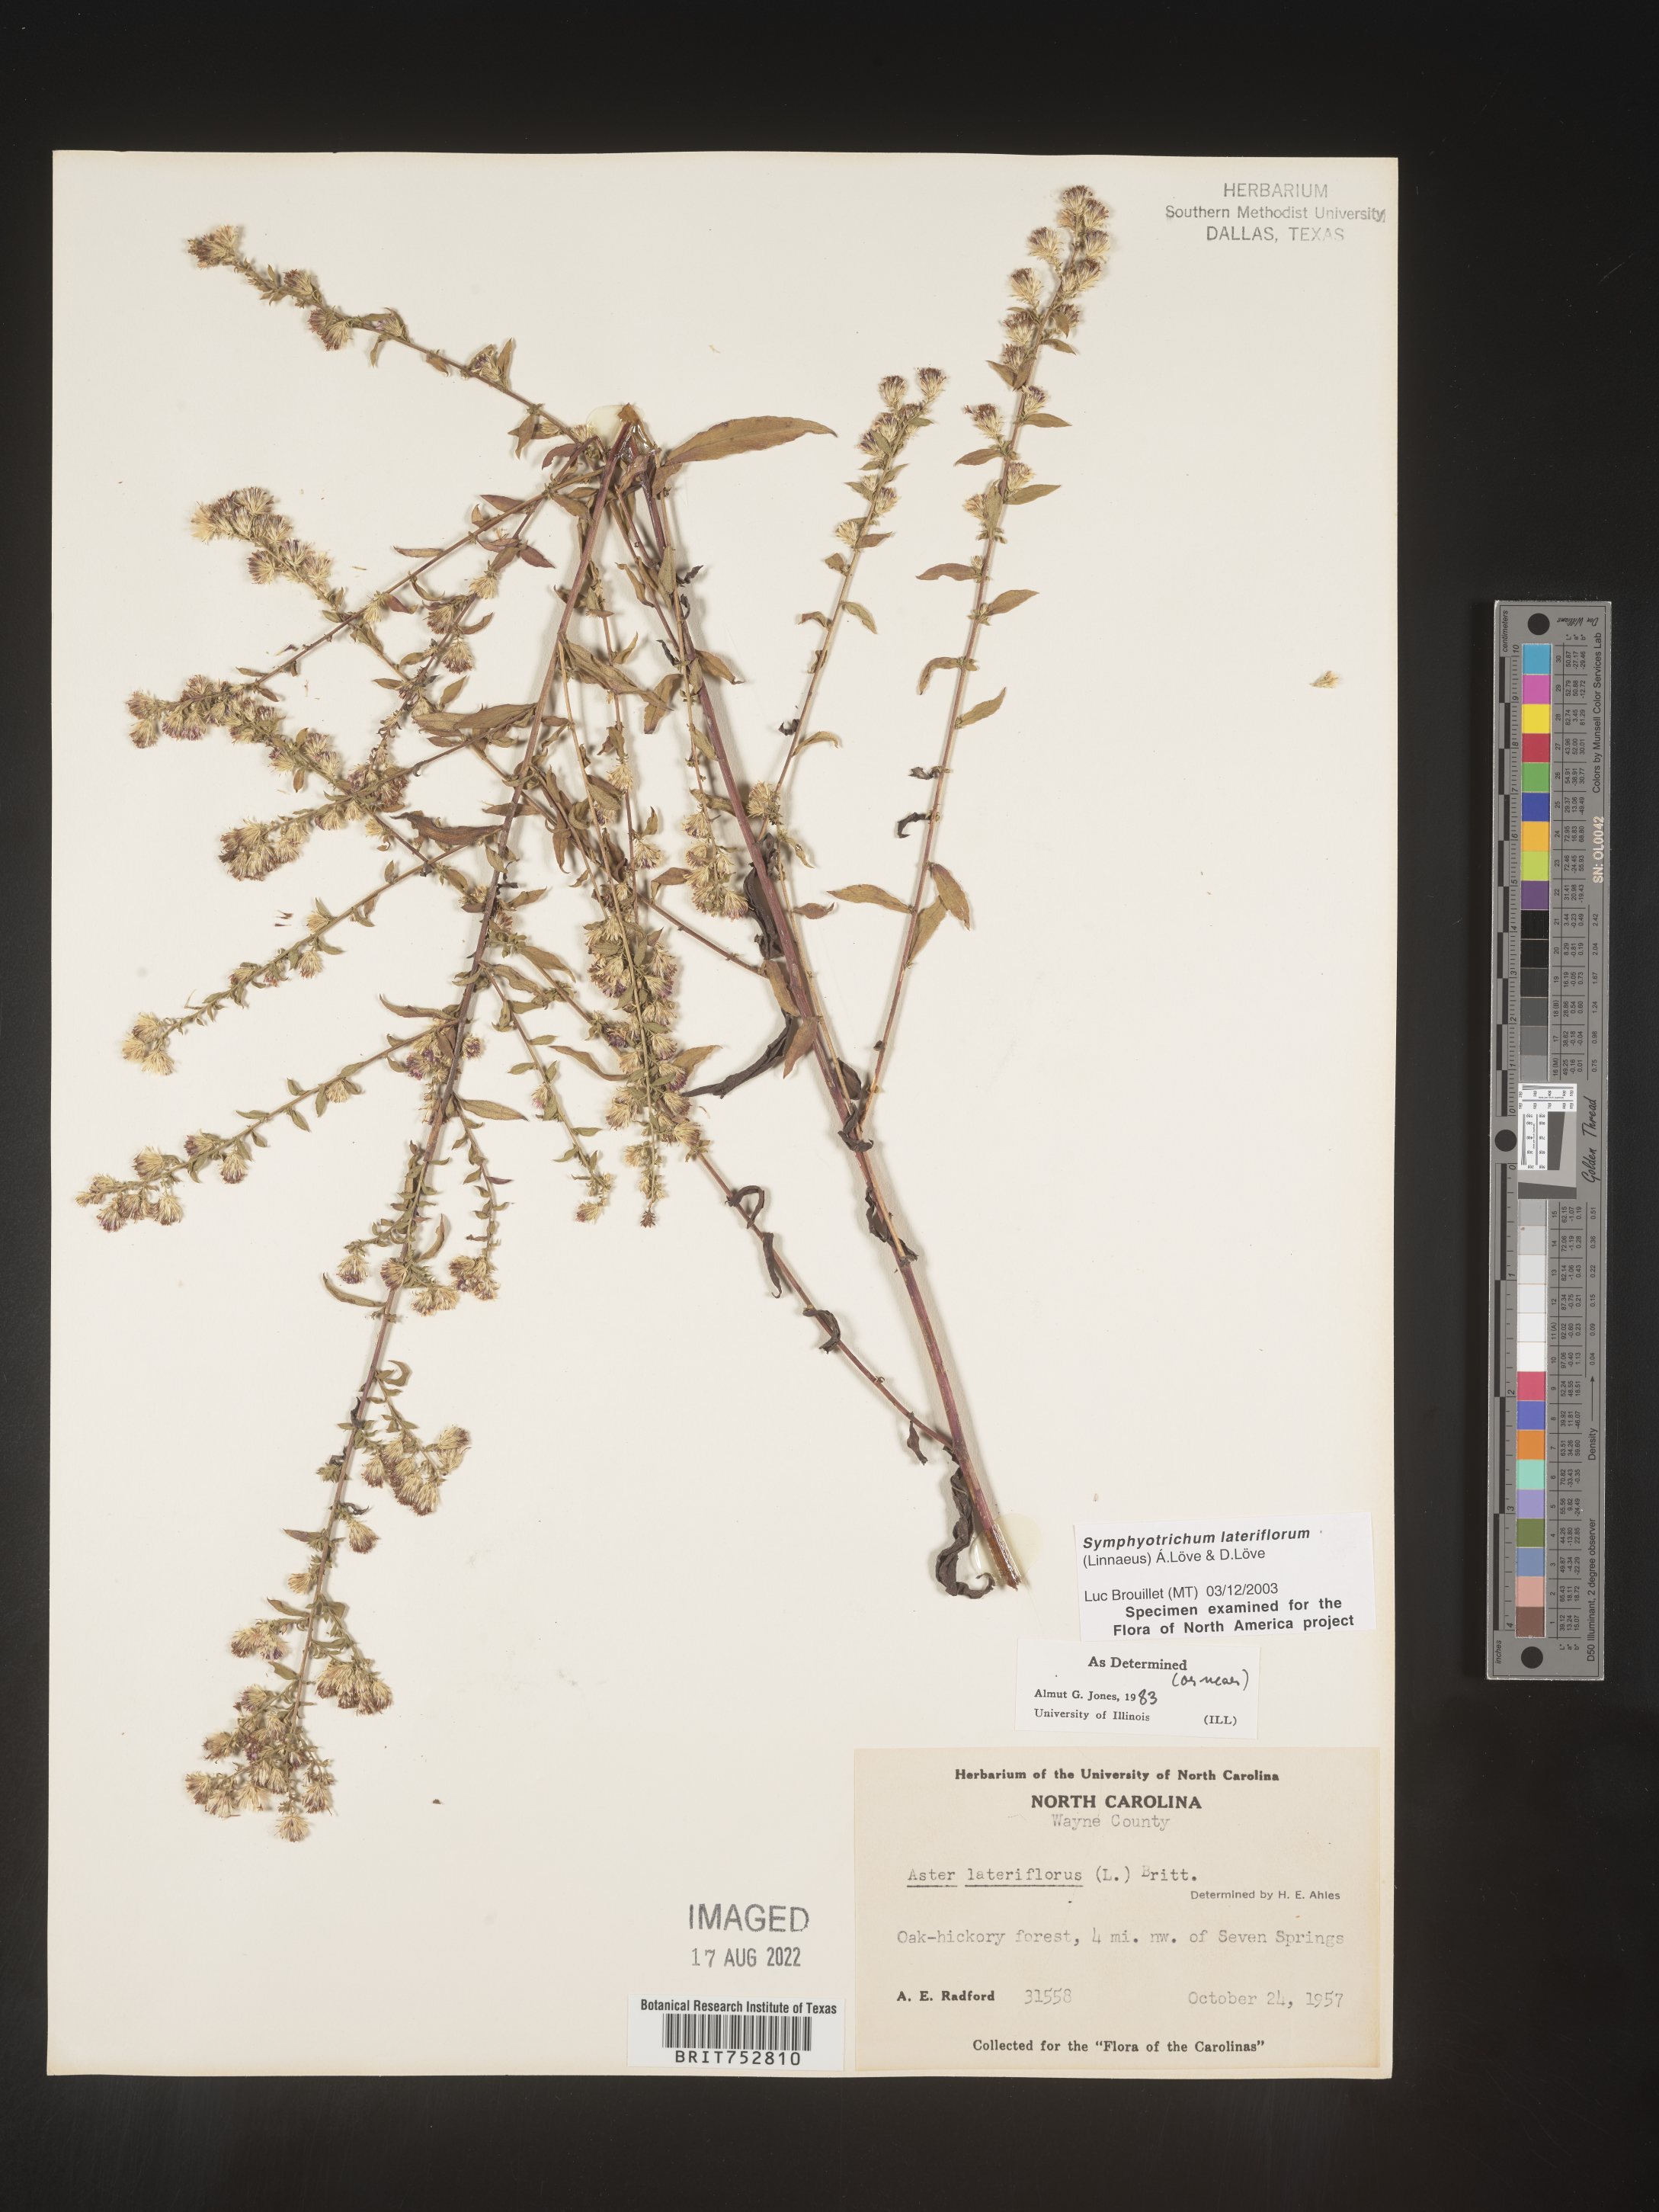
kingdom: Plantae
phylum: Tracheophyta
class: Magnoliopsida
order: Asterales
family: Asteraceae
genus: Symphyotrichum
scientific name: Symphyotrichum lateriflorum
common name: Calico aster
